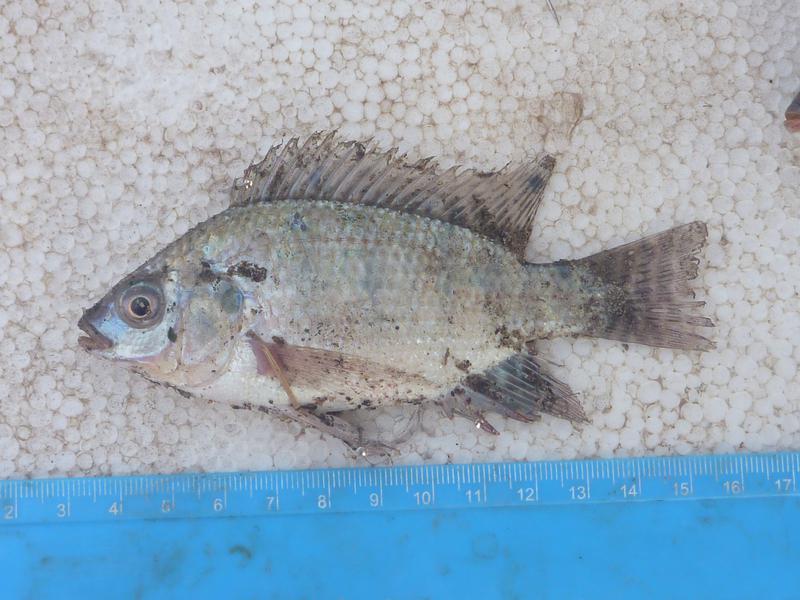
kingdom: Animalia
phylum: Chordata
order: Perciformes
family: Cichlidae
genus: Oreochromis
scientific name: Oreochromis niloticus
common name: Nile tilapia
